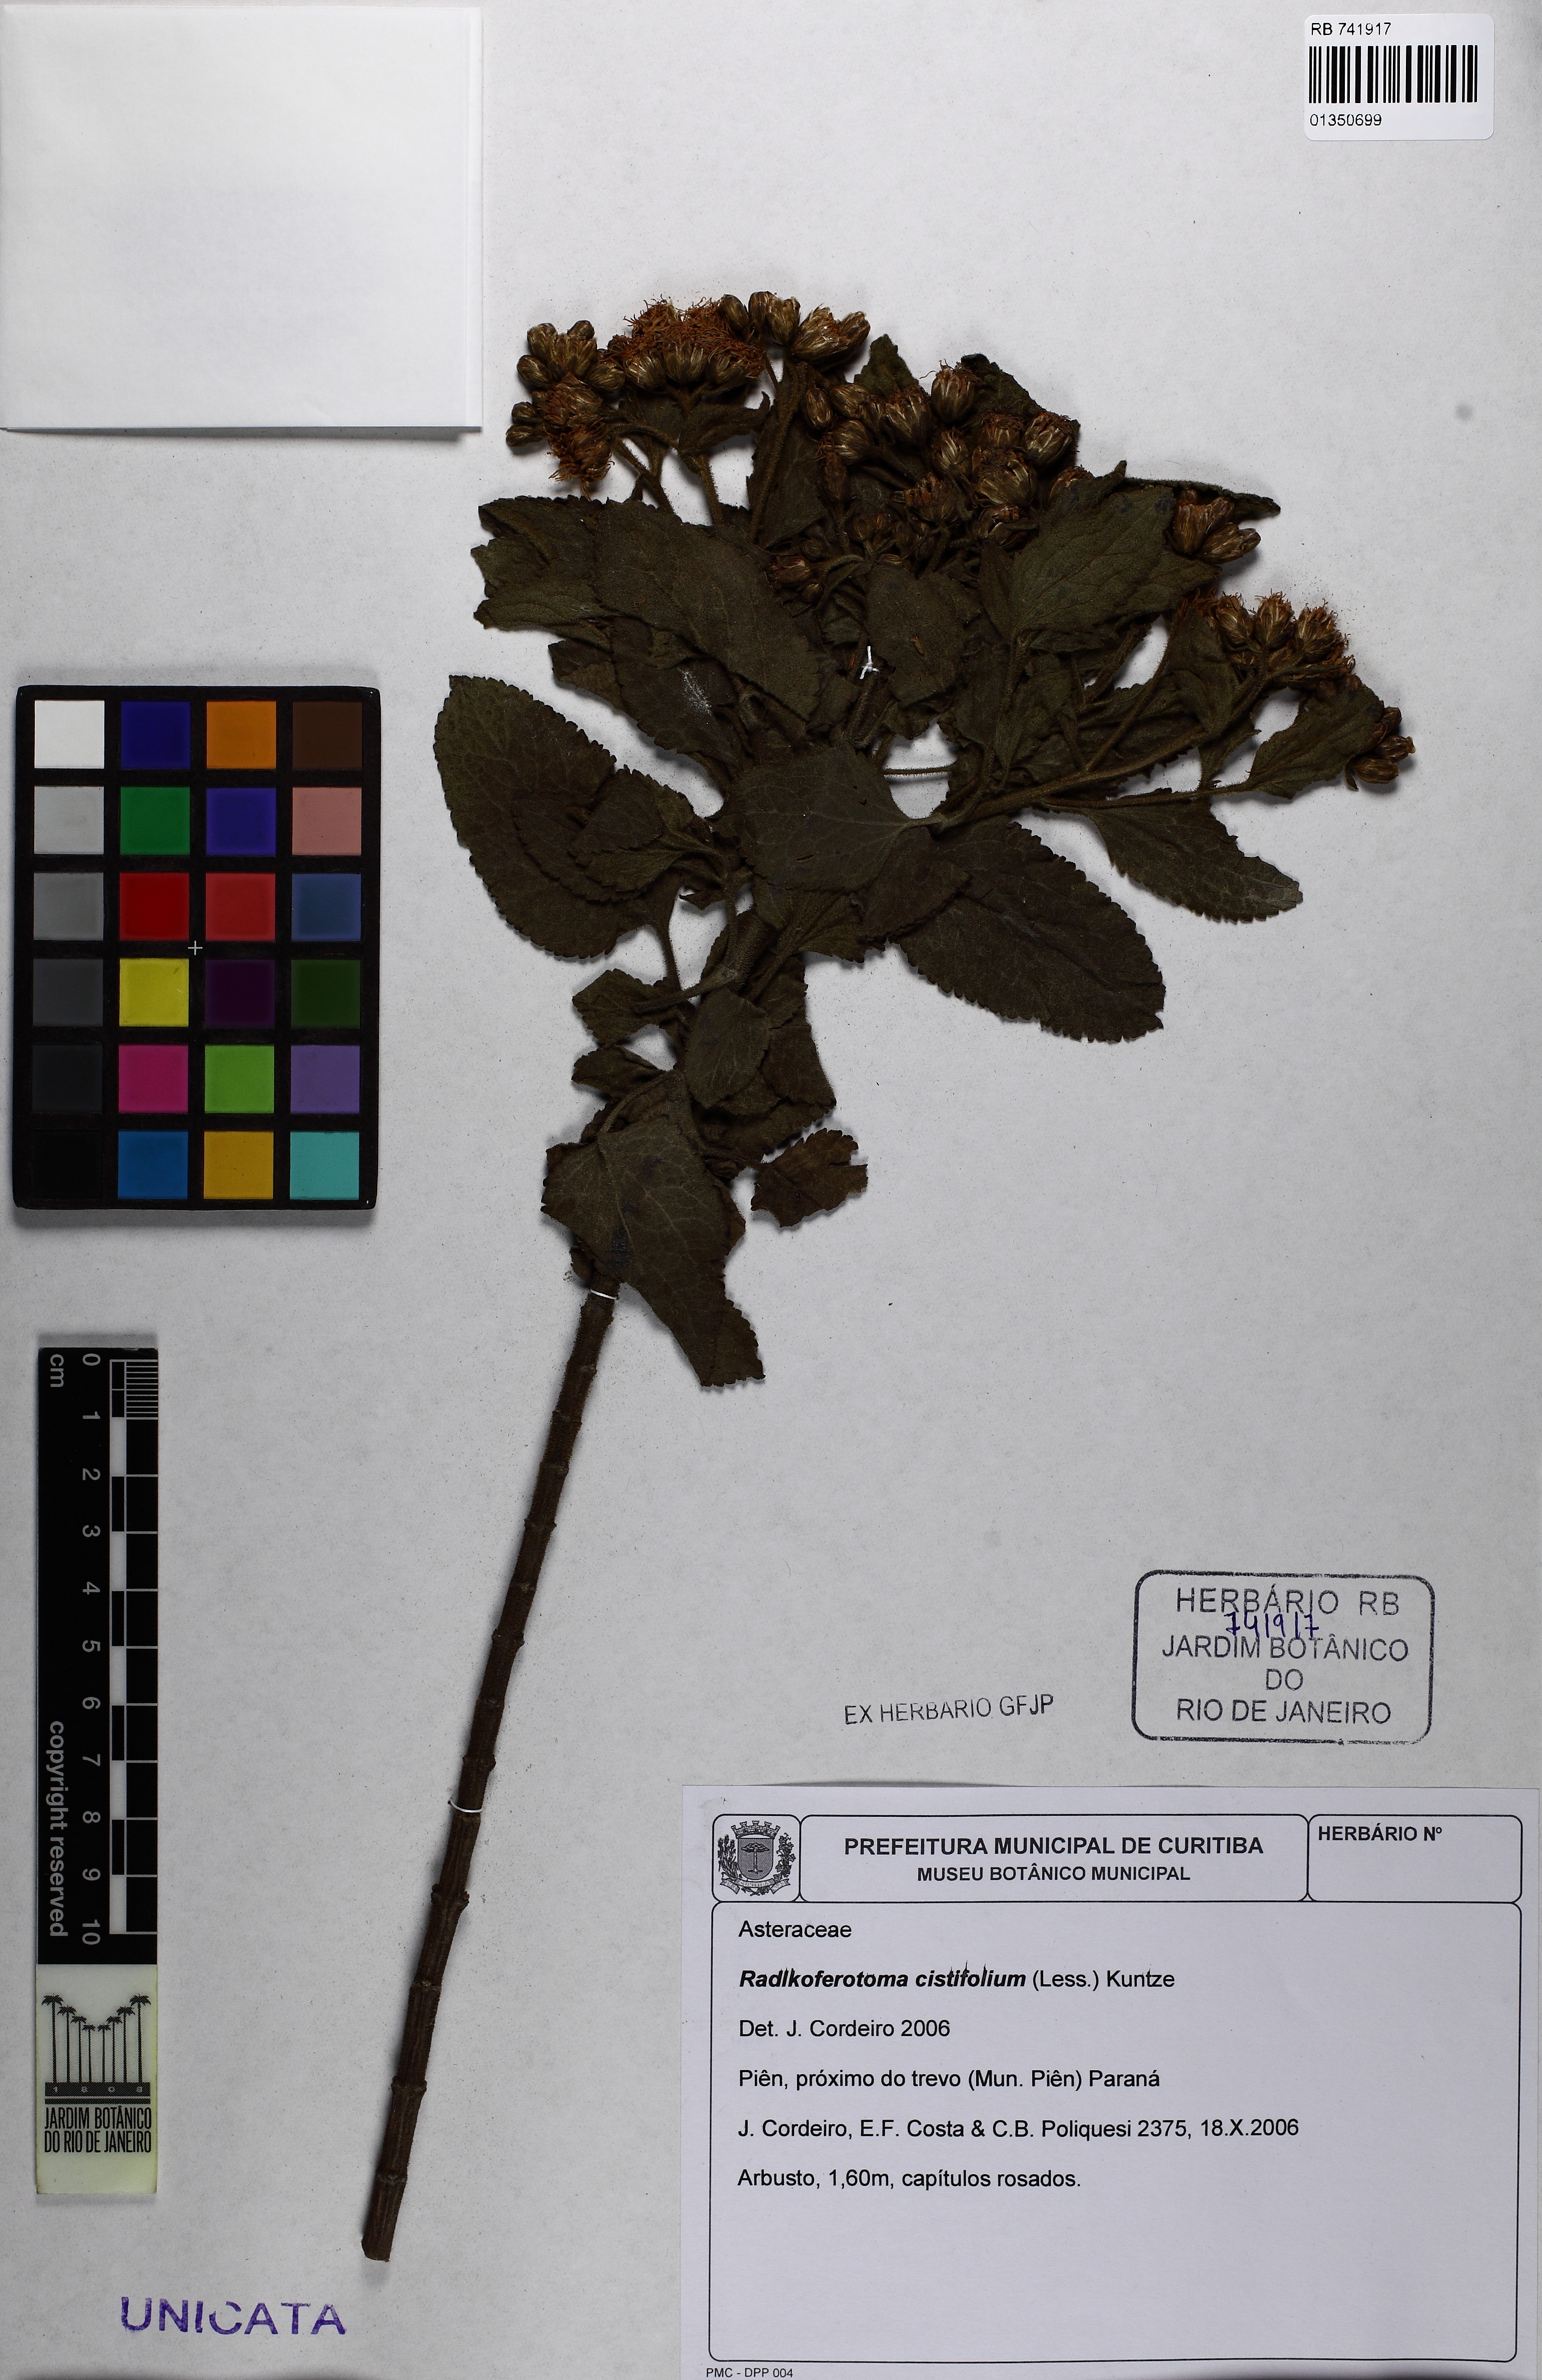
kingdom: Plantae
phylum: Tracheophyta
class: Magnoliopsida
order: Asterales
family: Asteraceae
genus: Radlkoferotoma
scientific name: Radlkoferotoma cistifolium
